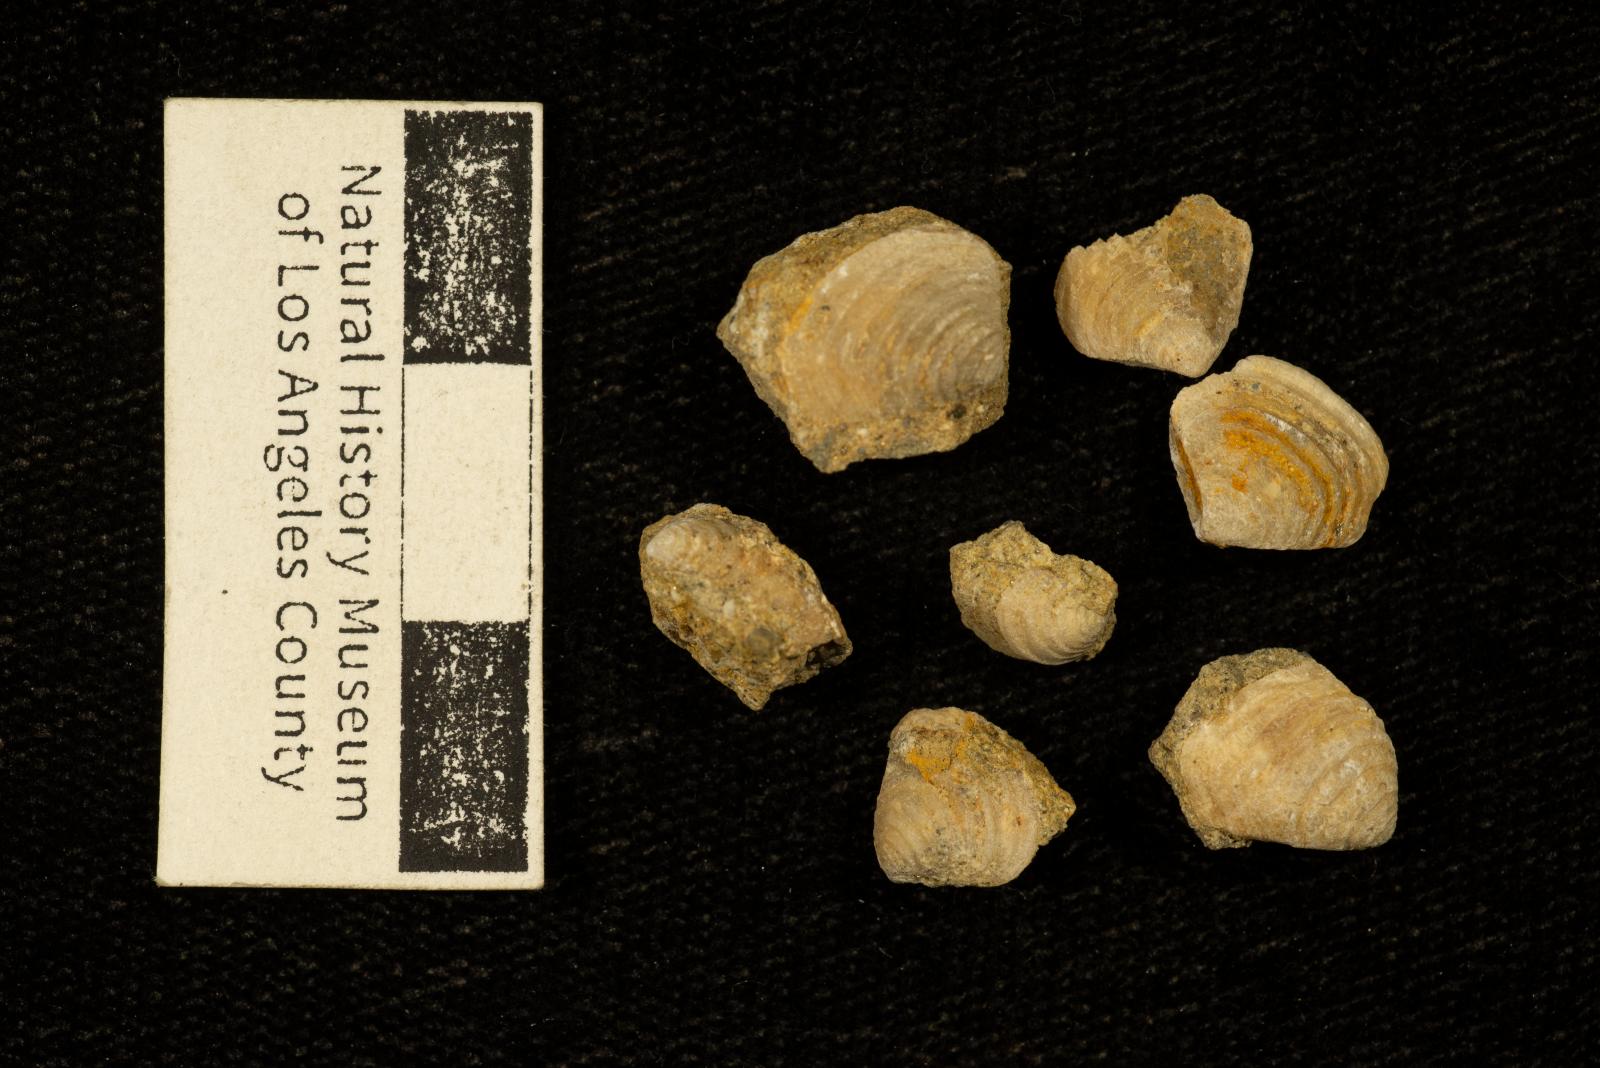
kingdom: Animalia
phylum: Mollusca
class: Bivalvia
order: Venerida
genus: Alleinacin
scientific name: Alleinacin
